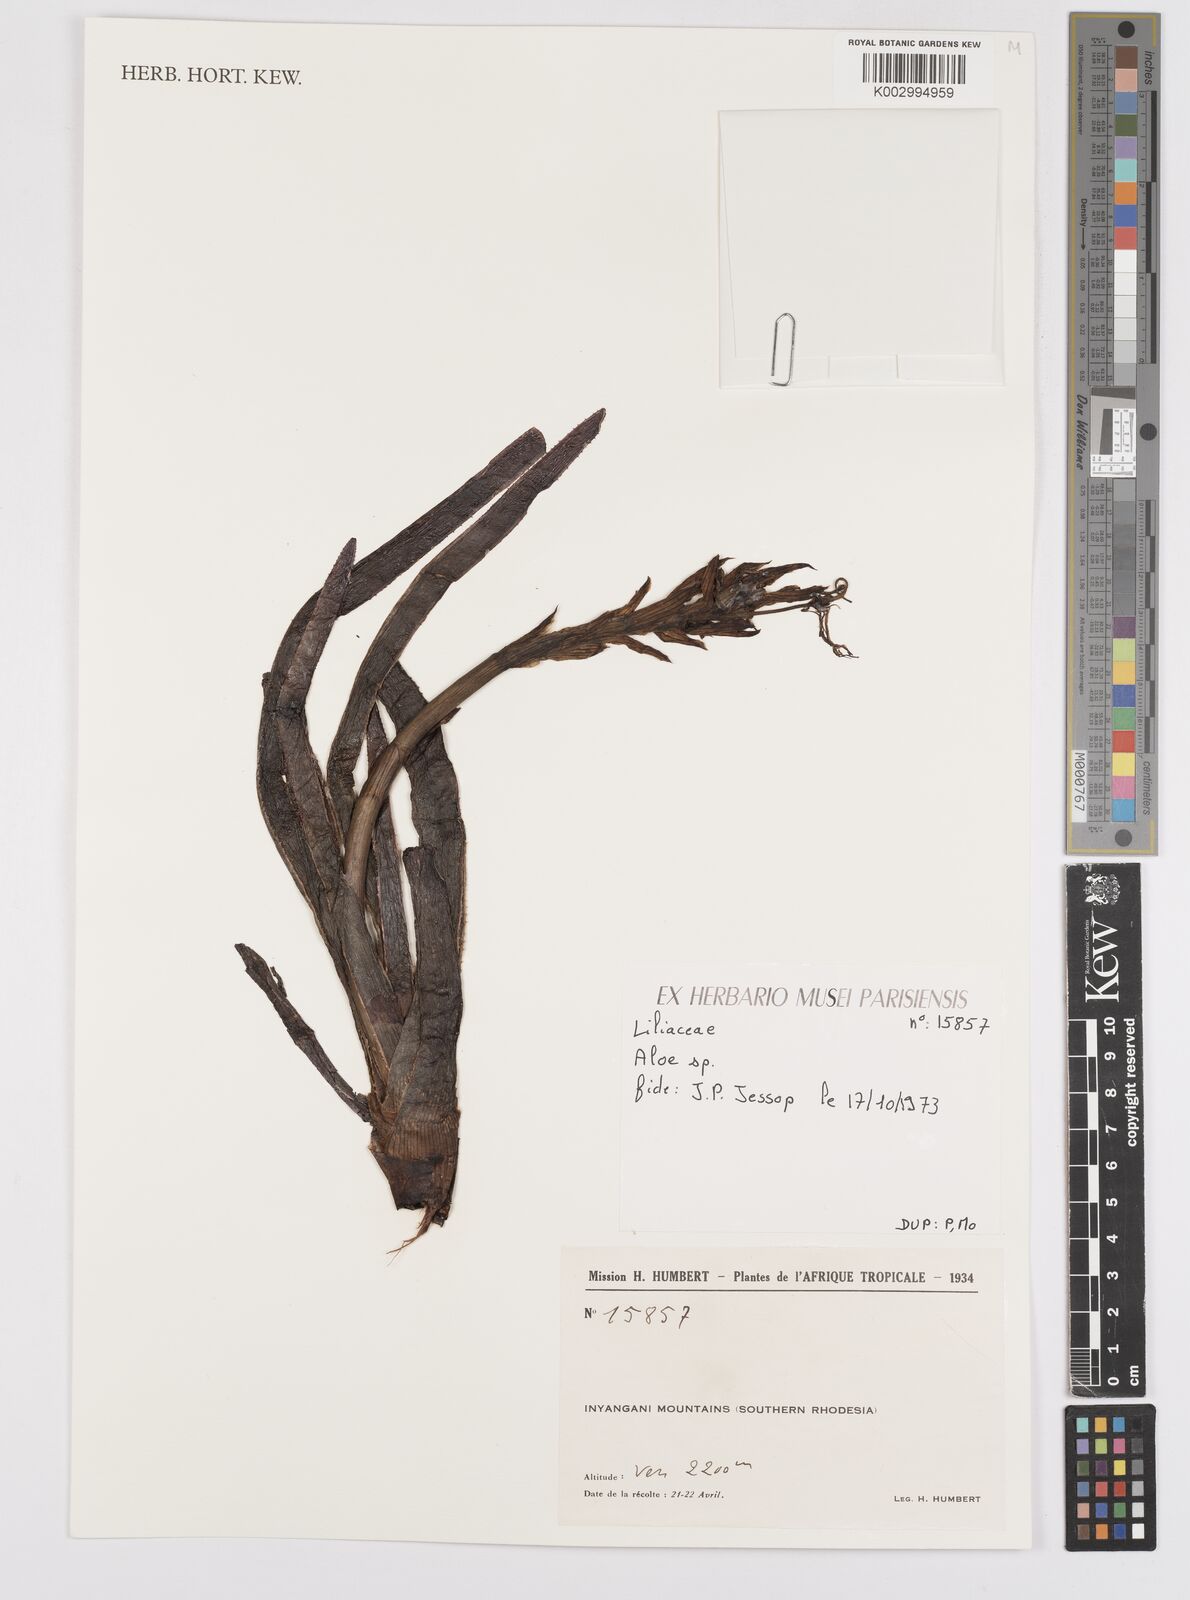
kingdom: Plantae
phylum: Tracheophyta
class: Liliopsida
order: Asparagales
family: Asphodelaceae
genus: Aloe
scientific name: Aloe inyangensis
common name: Inyanga aloe
